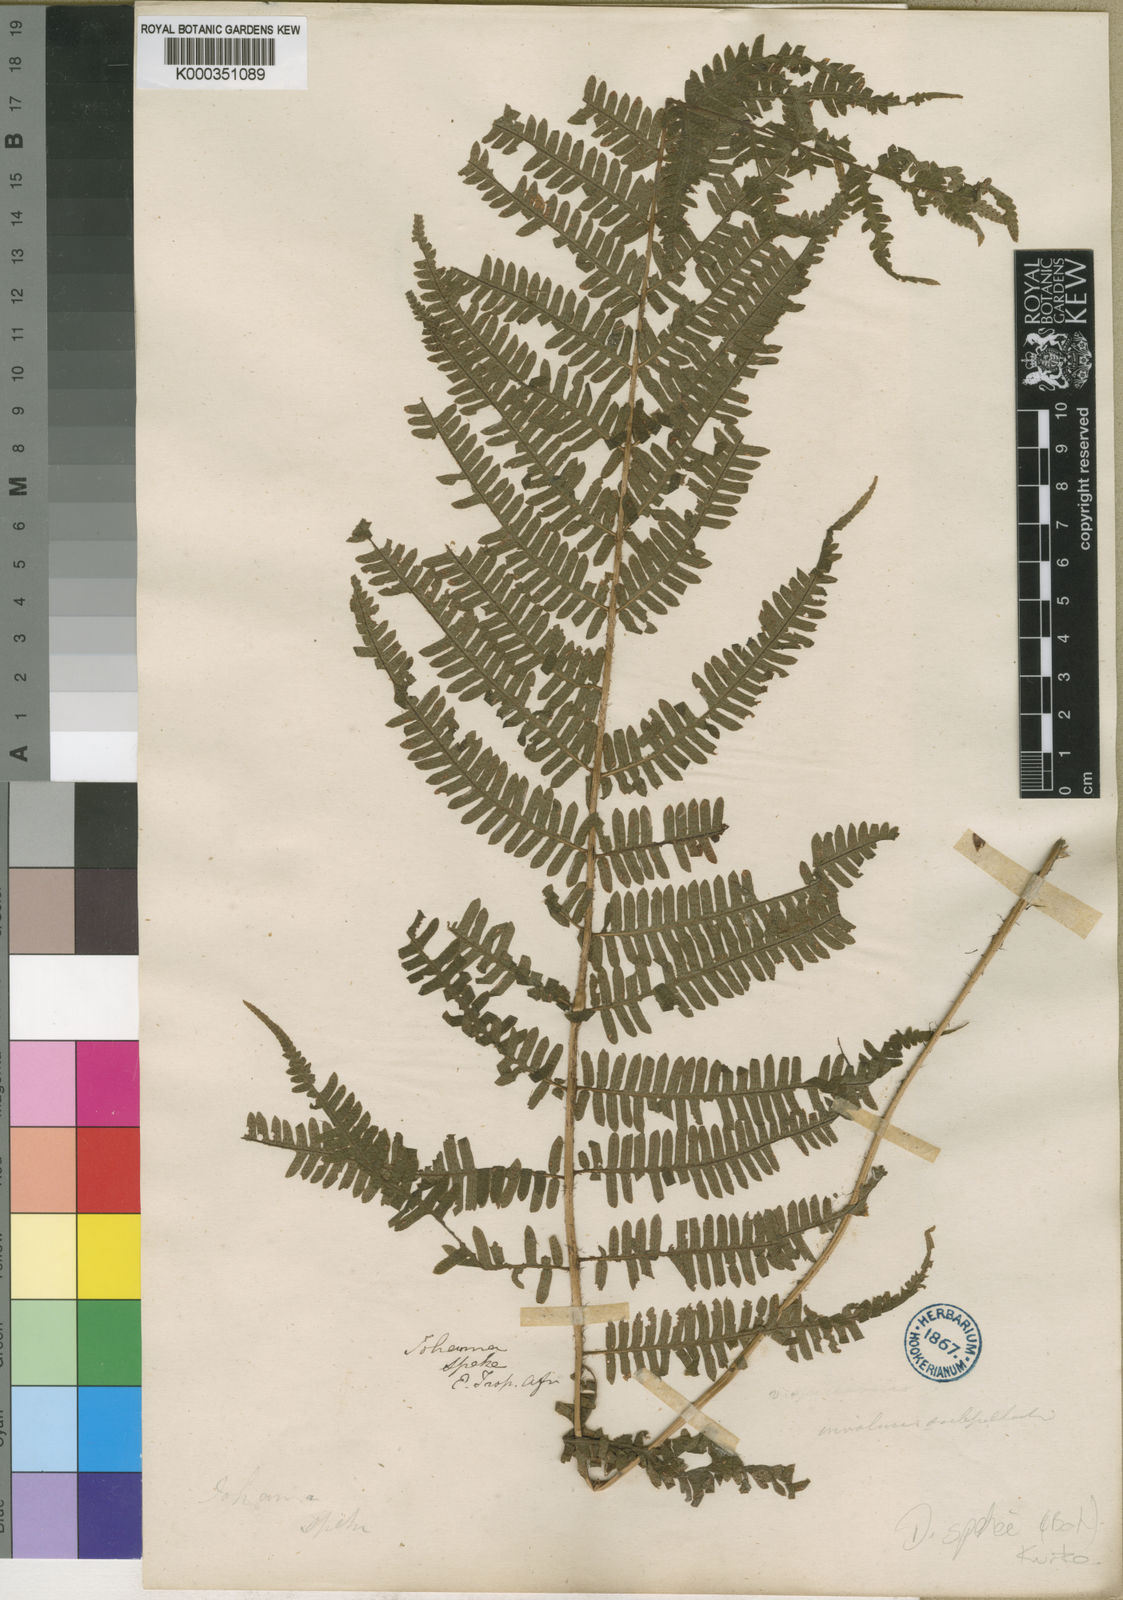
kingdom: Plantae
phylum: Tracheophyta
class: Polypodiopsida
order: Polypodiales
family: Dryopteridaceae
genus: Ctenitis
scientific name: Ctenitis spekei
